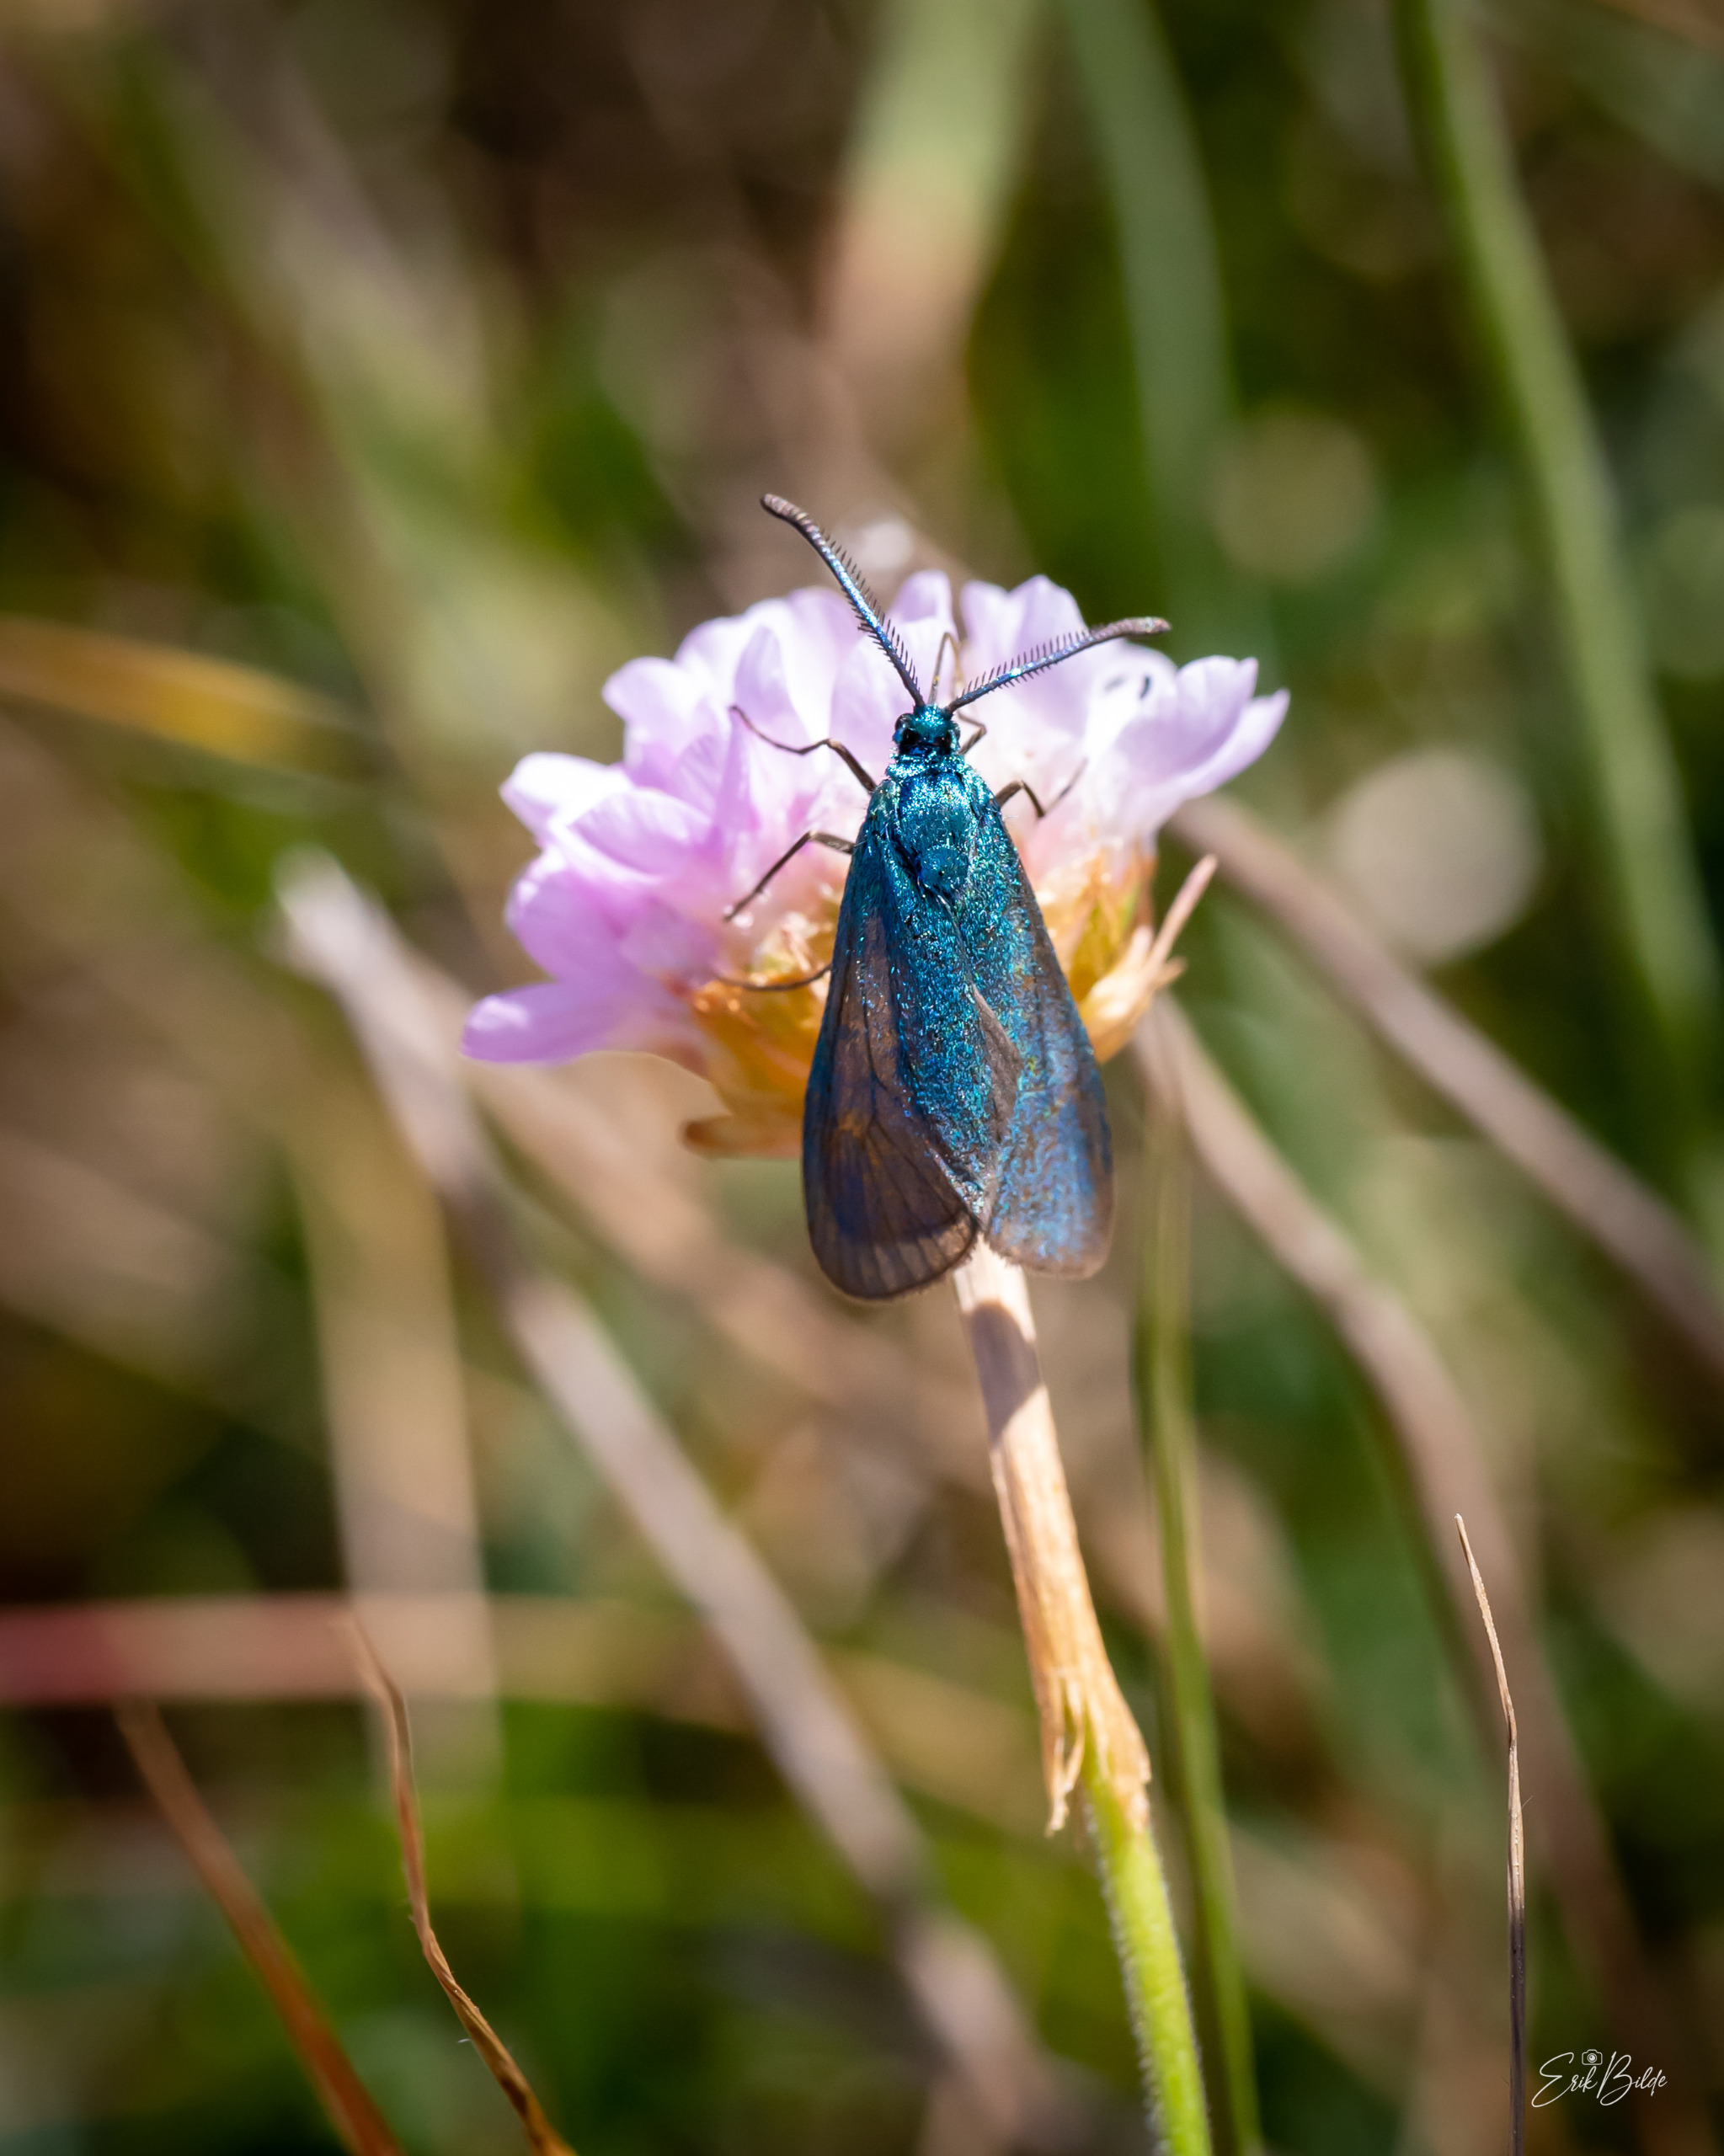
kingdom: Animalia
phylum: Arthropoda
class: Insecta
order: Lepidoptera
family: Zygaenidae
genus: Adscita
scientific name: Adscita statices
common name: Metalvinge
